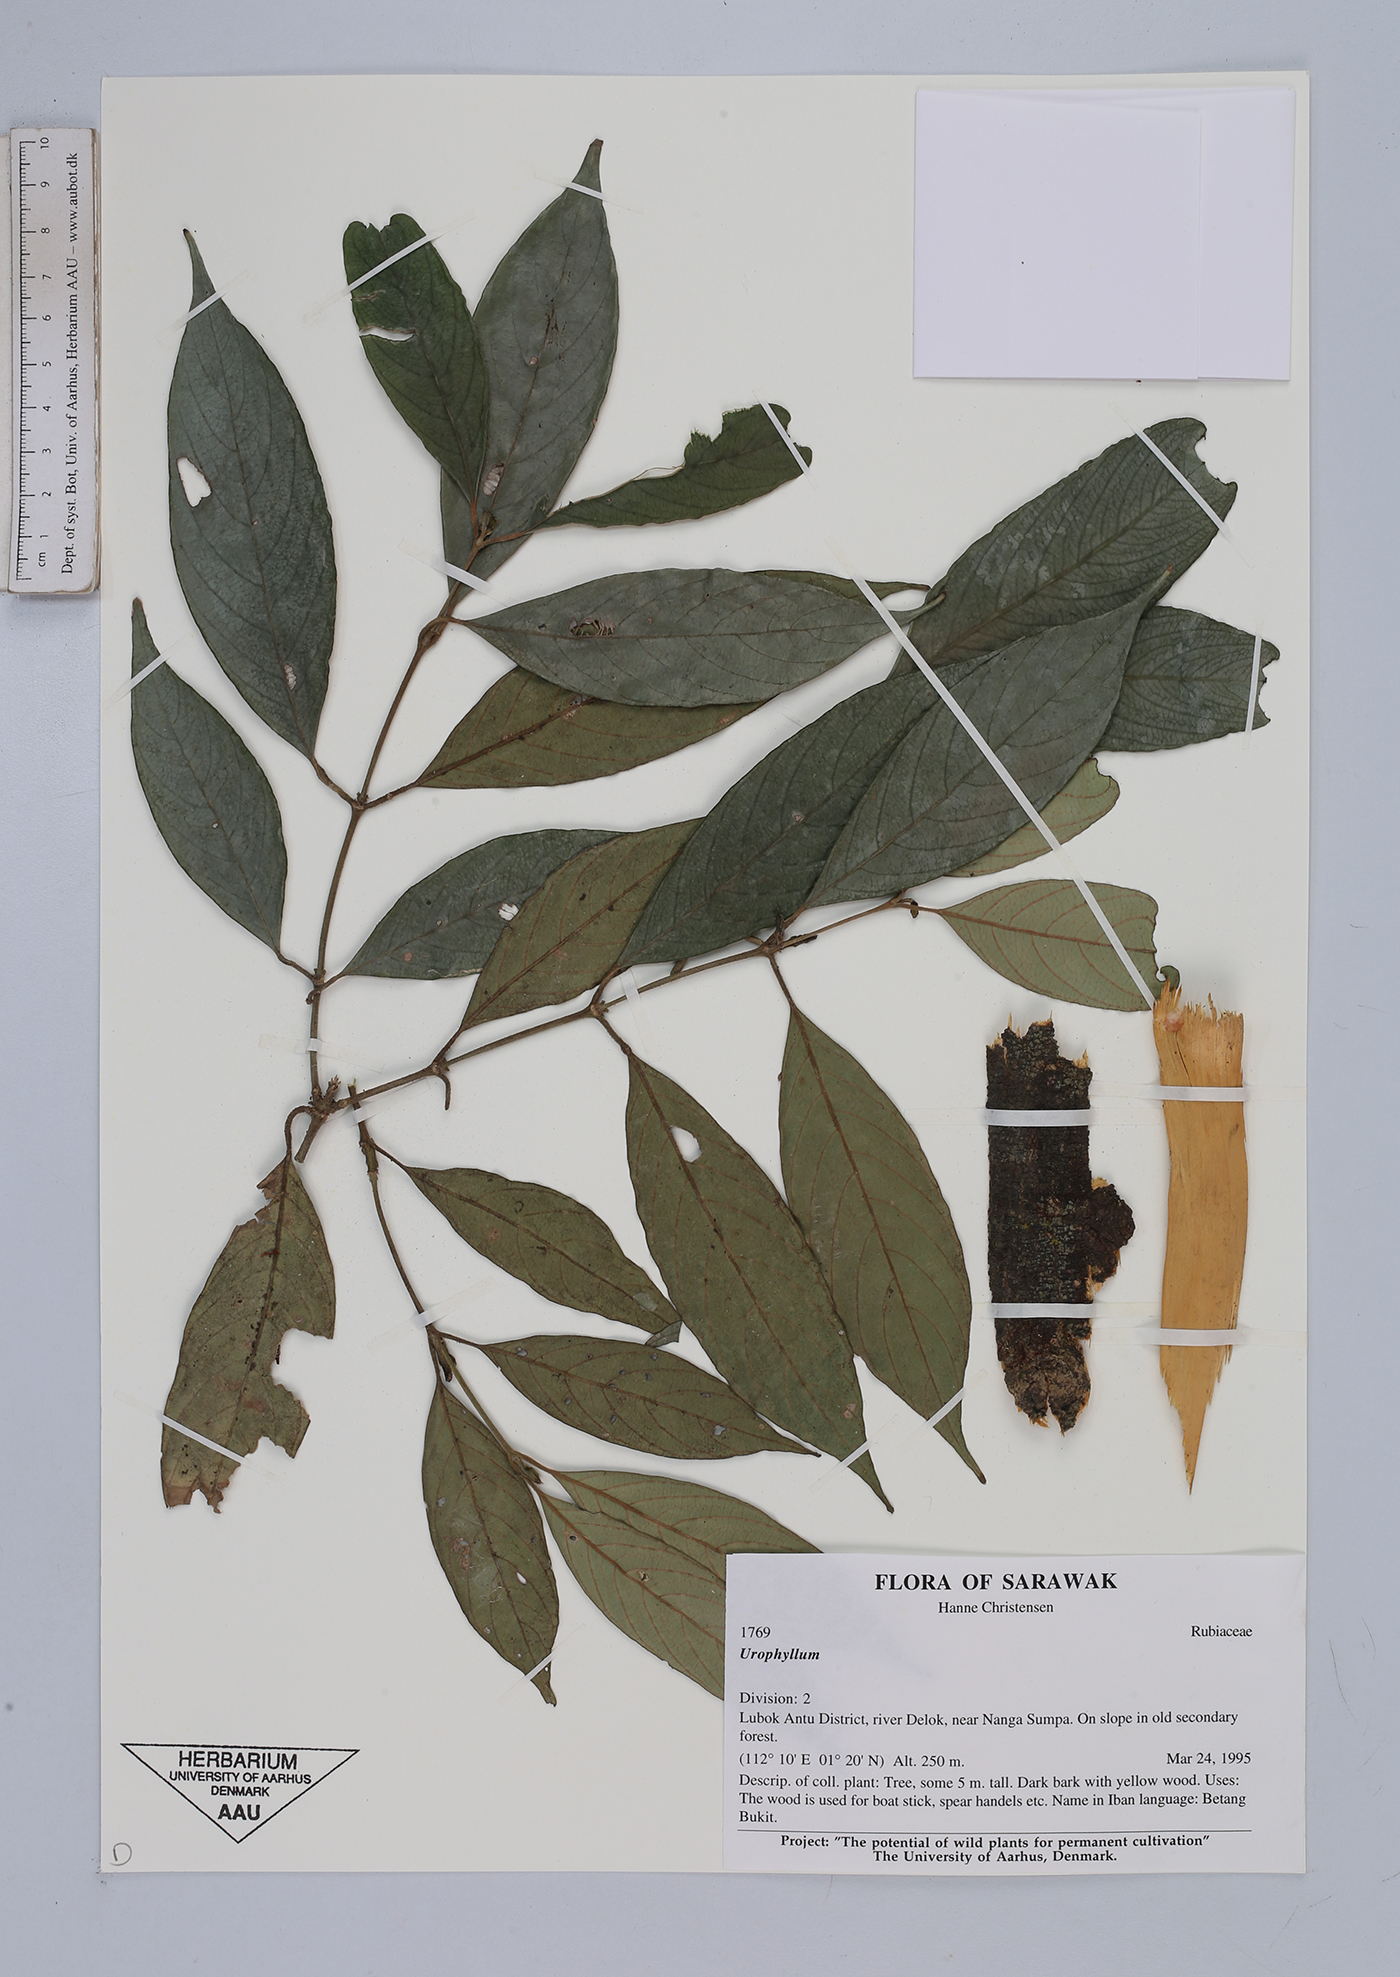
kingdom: Plantae
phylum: Tracheophyta
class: Magnoliopsida
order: Gentianales
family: Rubiaceae
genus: Urophyllum
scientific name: Urophyllum
